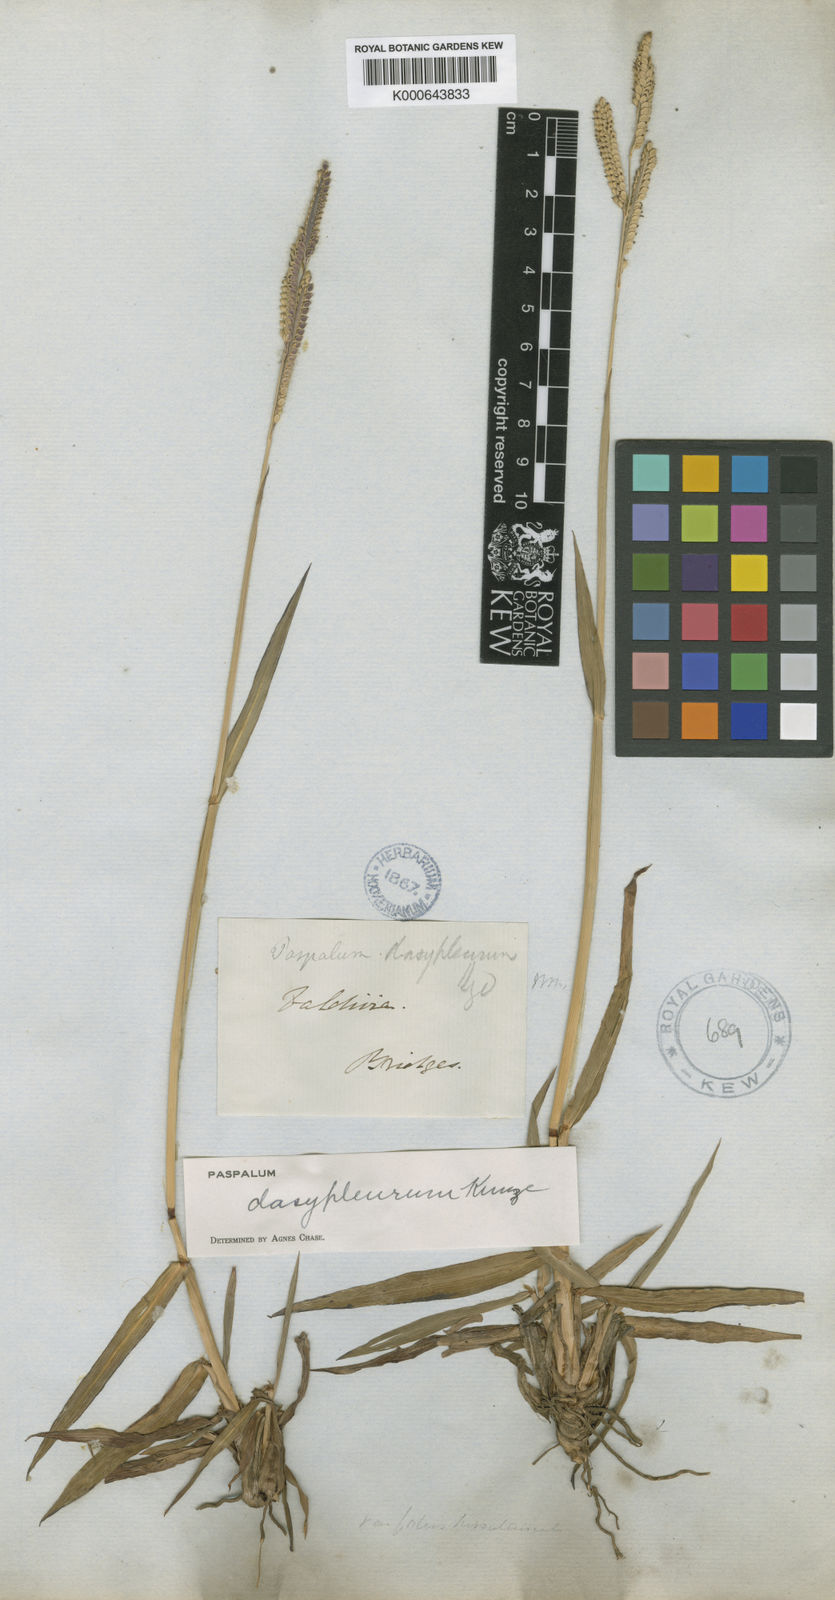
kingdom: Plantae
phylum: Tracheophyta
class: Liliopsida
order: Poales
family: Poaceae
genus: Paspalum
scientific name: Paspalum dasypleurum
